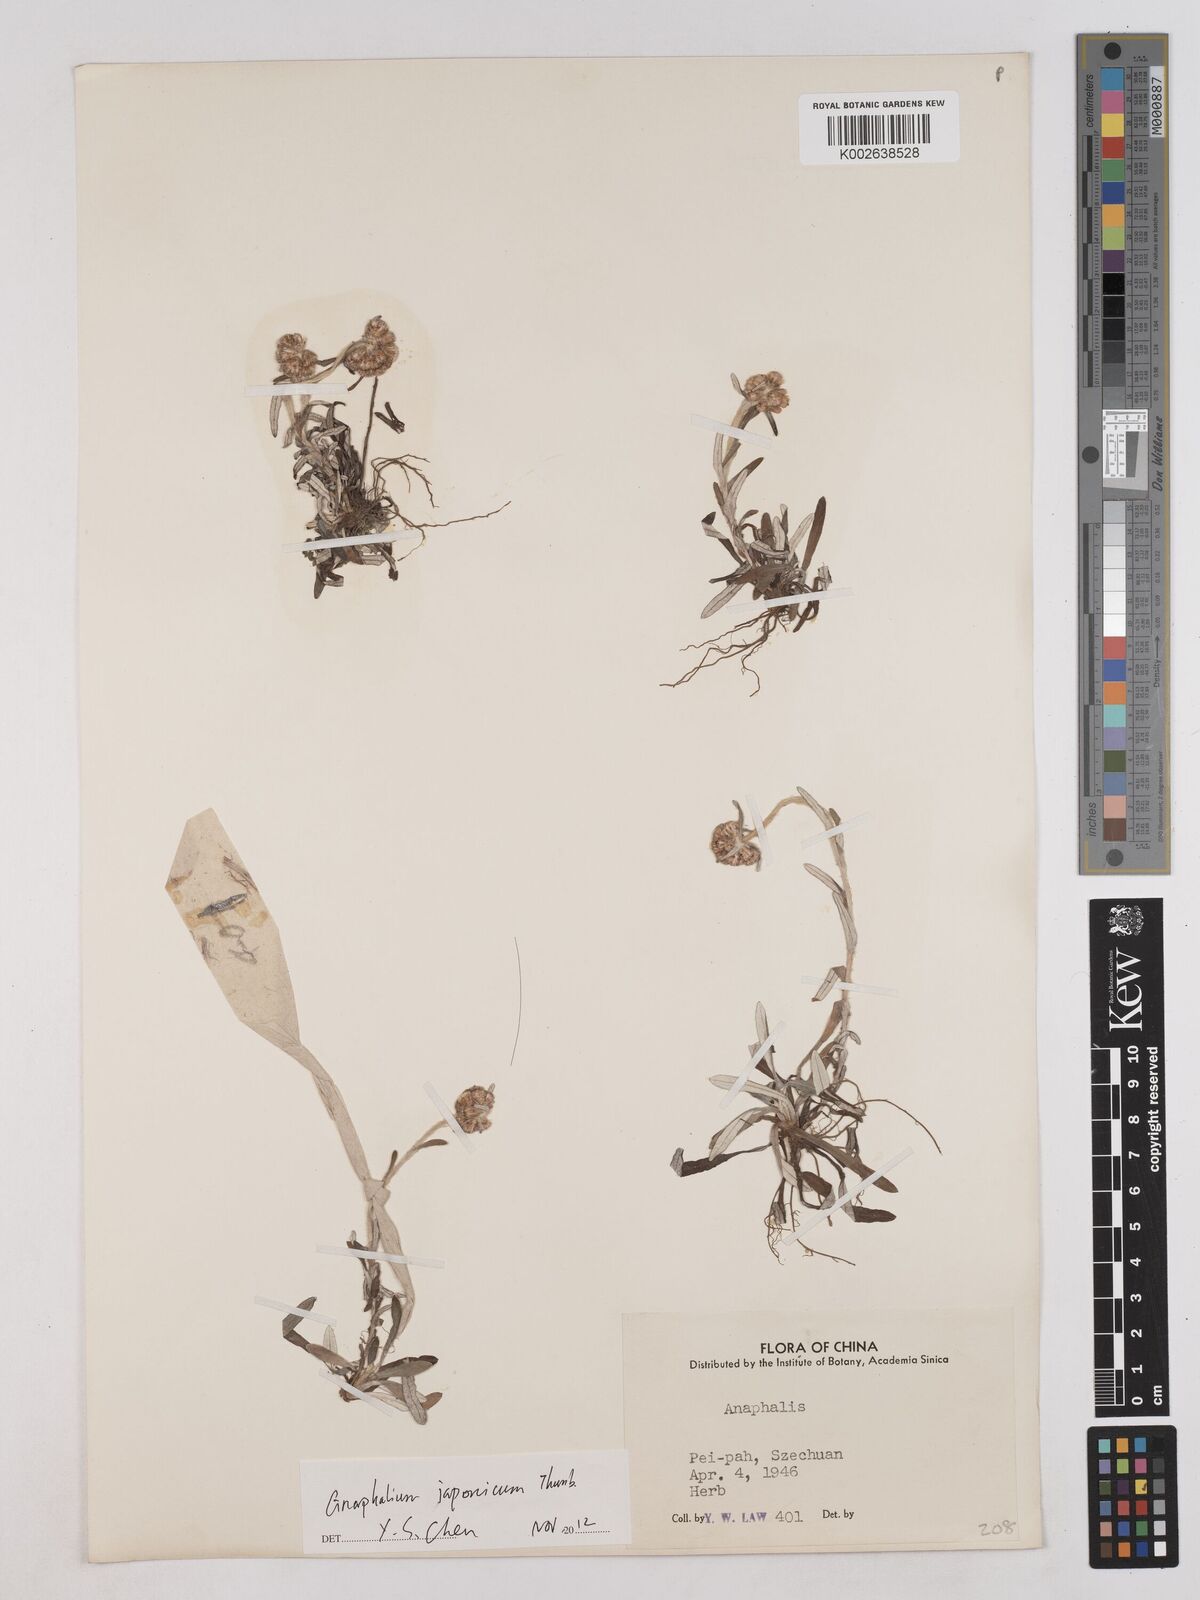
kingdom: Plantae
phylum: Tracheophyta
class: Magnoliopsida
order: Asterales
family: Asteraceae
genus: Anaphalis
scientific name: Anaphalis
